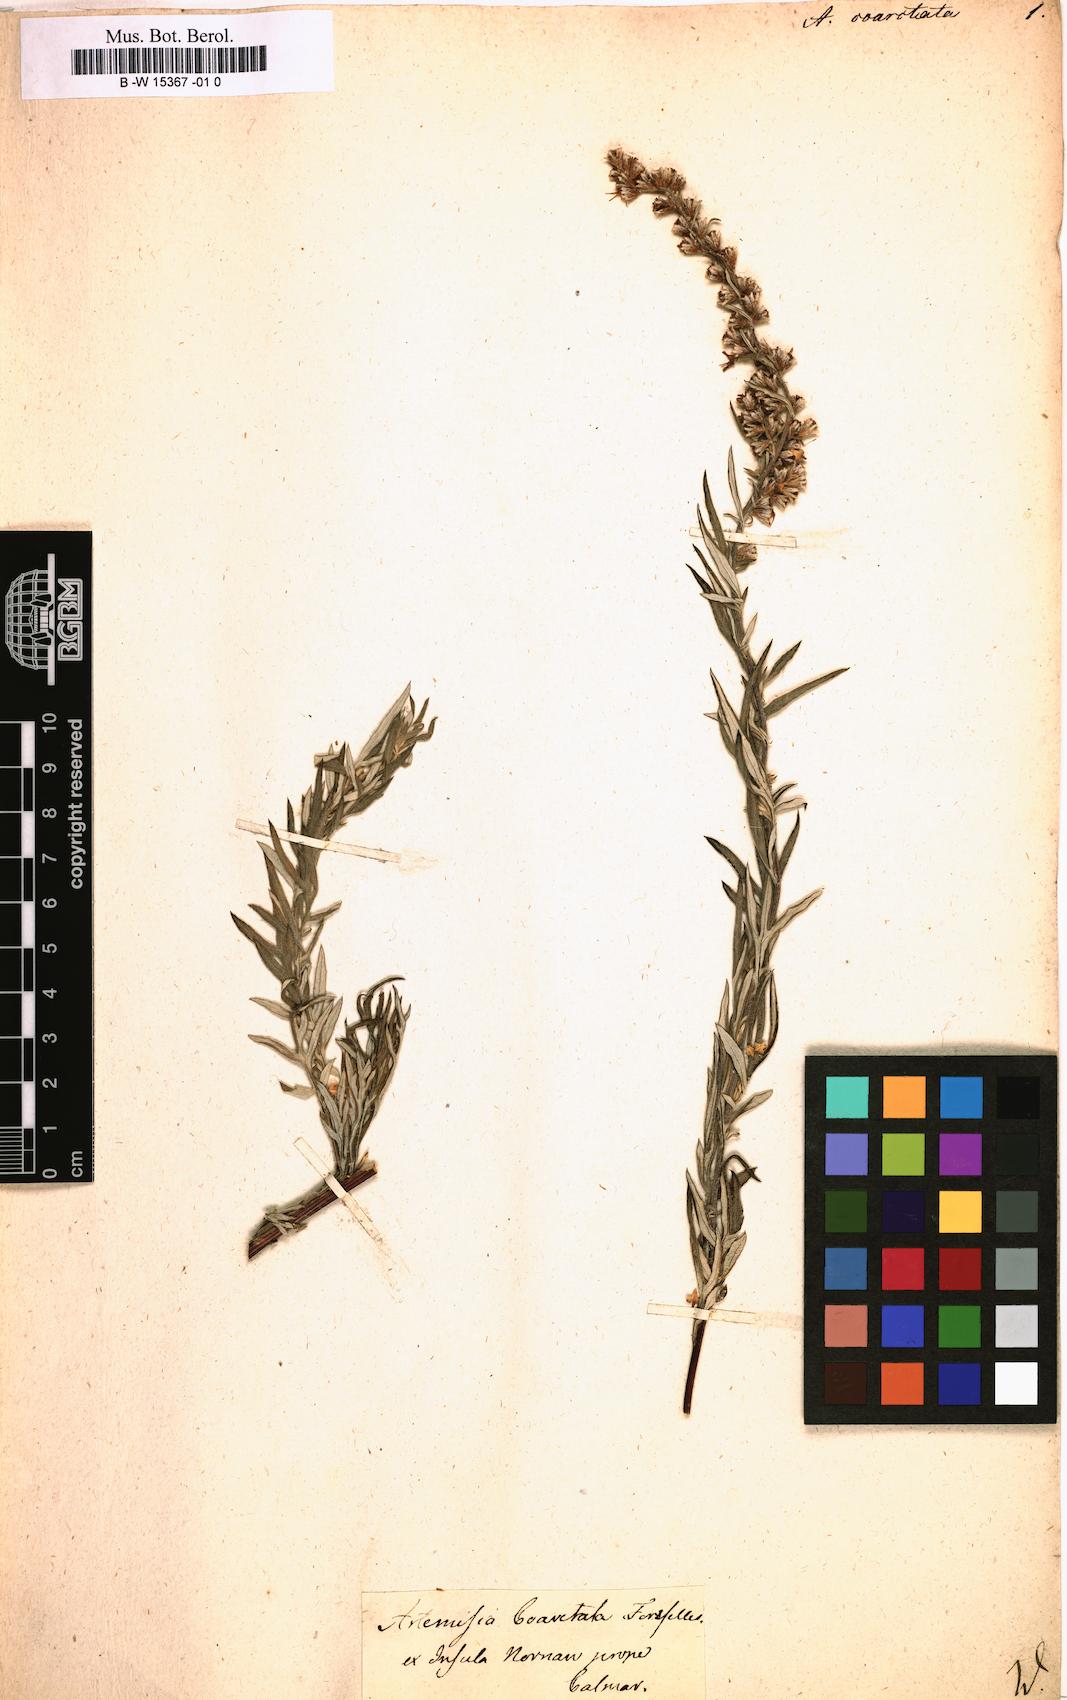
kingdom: Plantae
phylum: Tracheophyta
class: Magnoliopsida
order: Asterales
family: Asteraceae
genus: Artemisia
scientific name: Artemisia campestris
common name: Field wormwood
